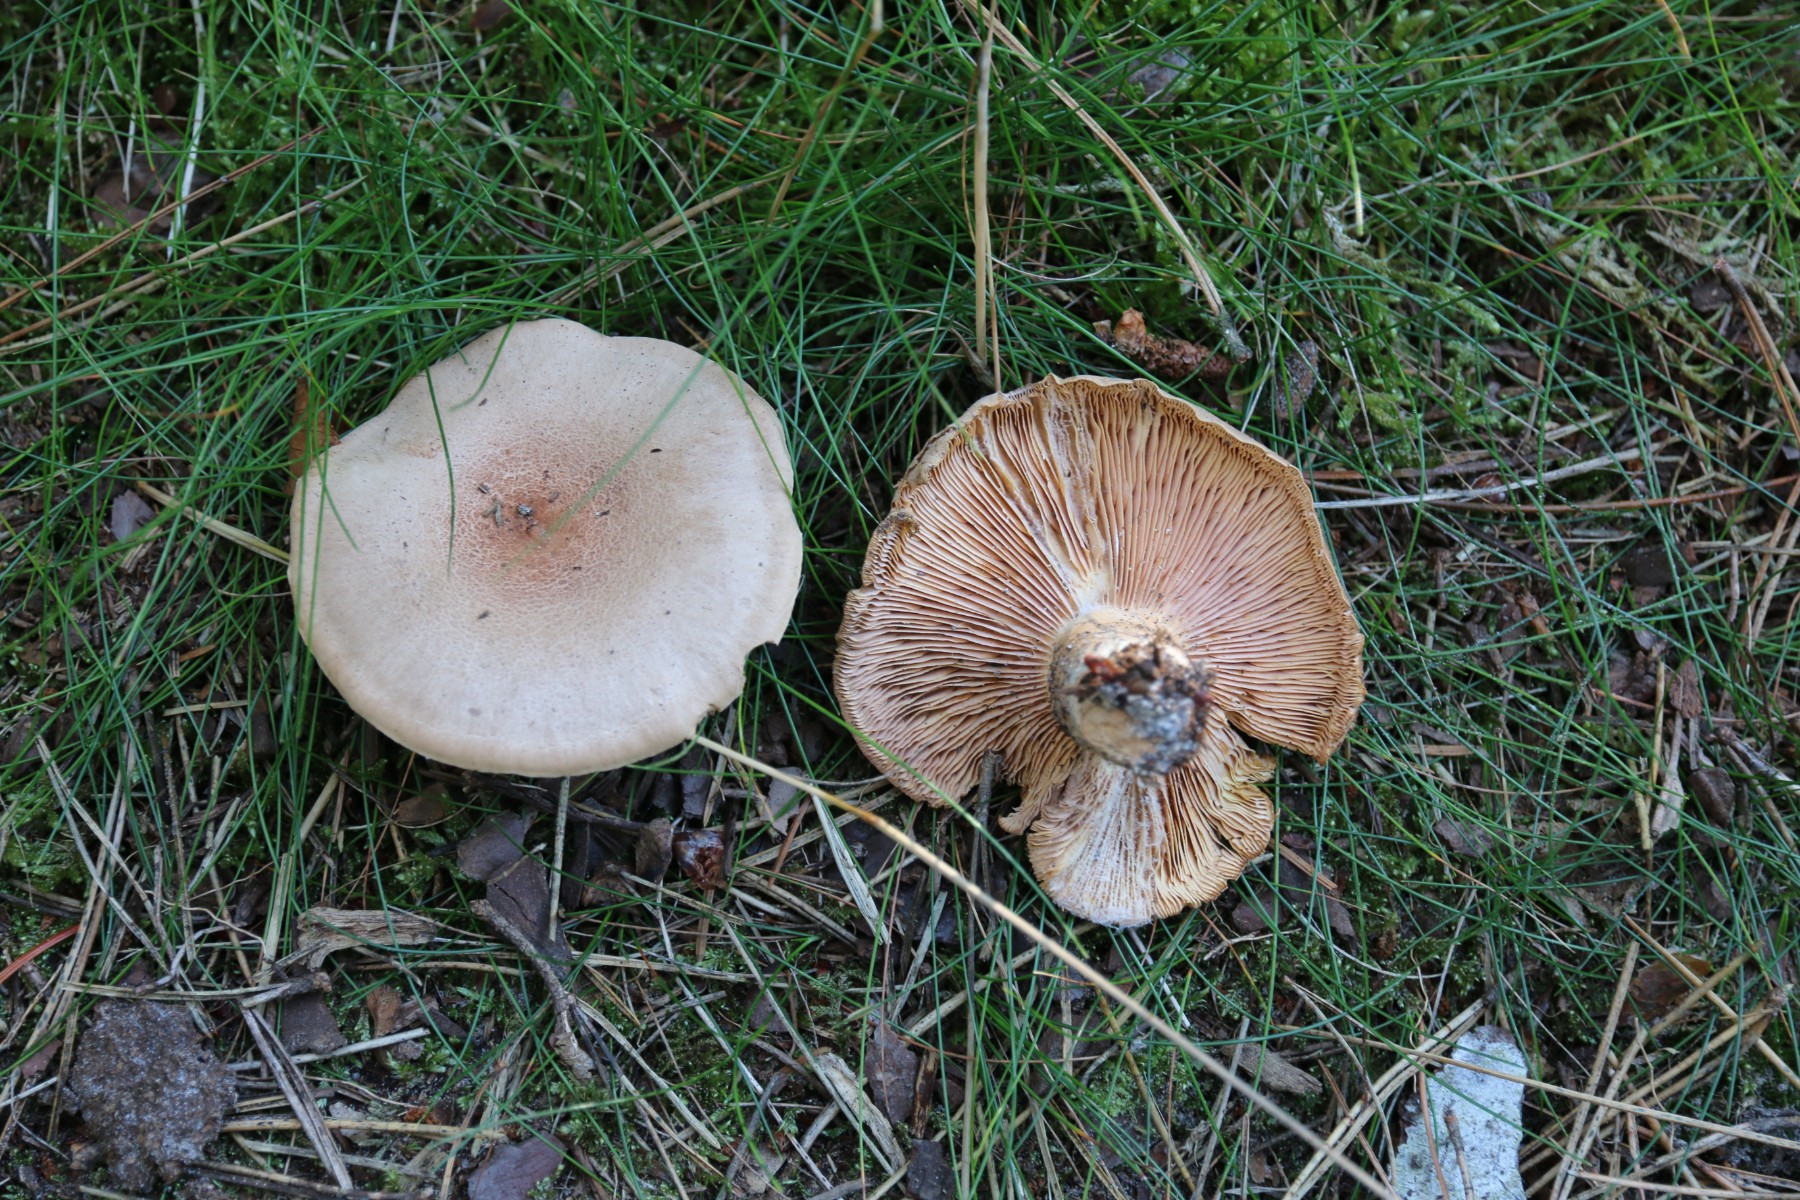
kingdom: Fungi
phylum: Basidiomycota
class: Agaricomycetes
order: Russulales
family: Russulaceae
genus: Lactarius
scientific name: Lactarius helvus
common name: mose-mælkehat
